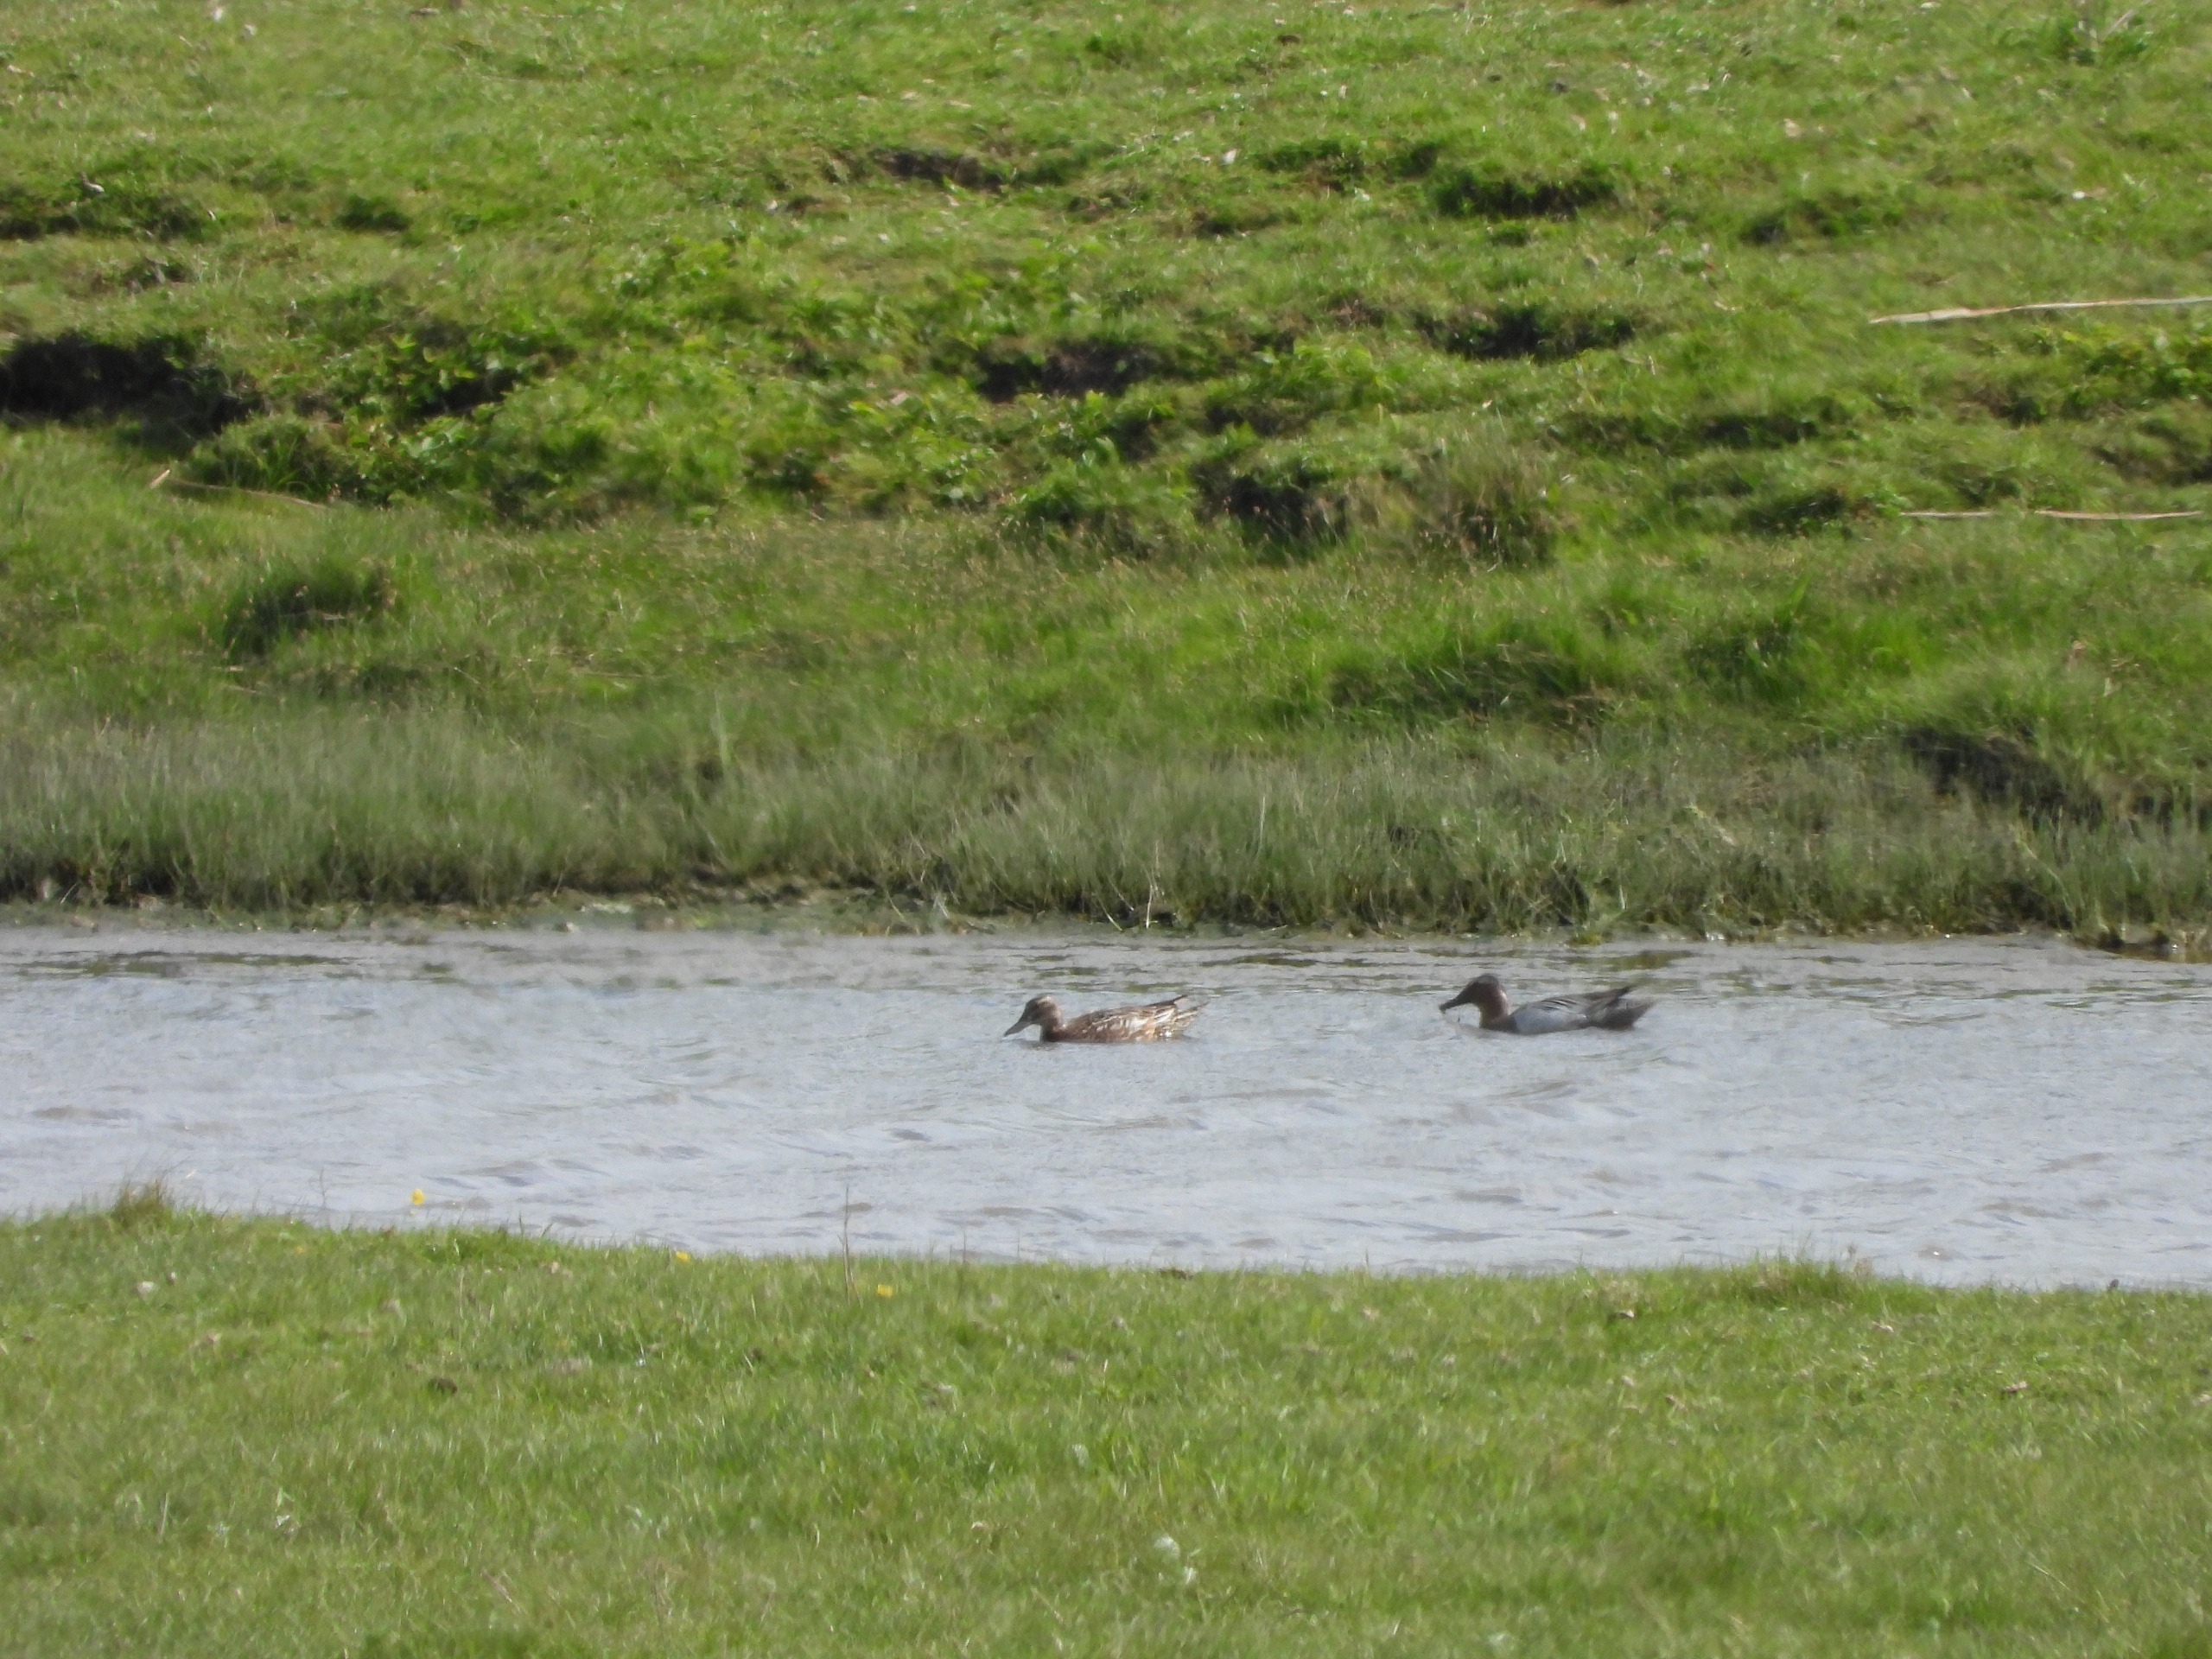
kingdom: Animalia
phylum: Chordata
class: Aves
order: Anseriformes
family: Anatidae
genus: Spatula
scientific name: Spatula querquedula
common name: Atlingand
